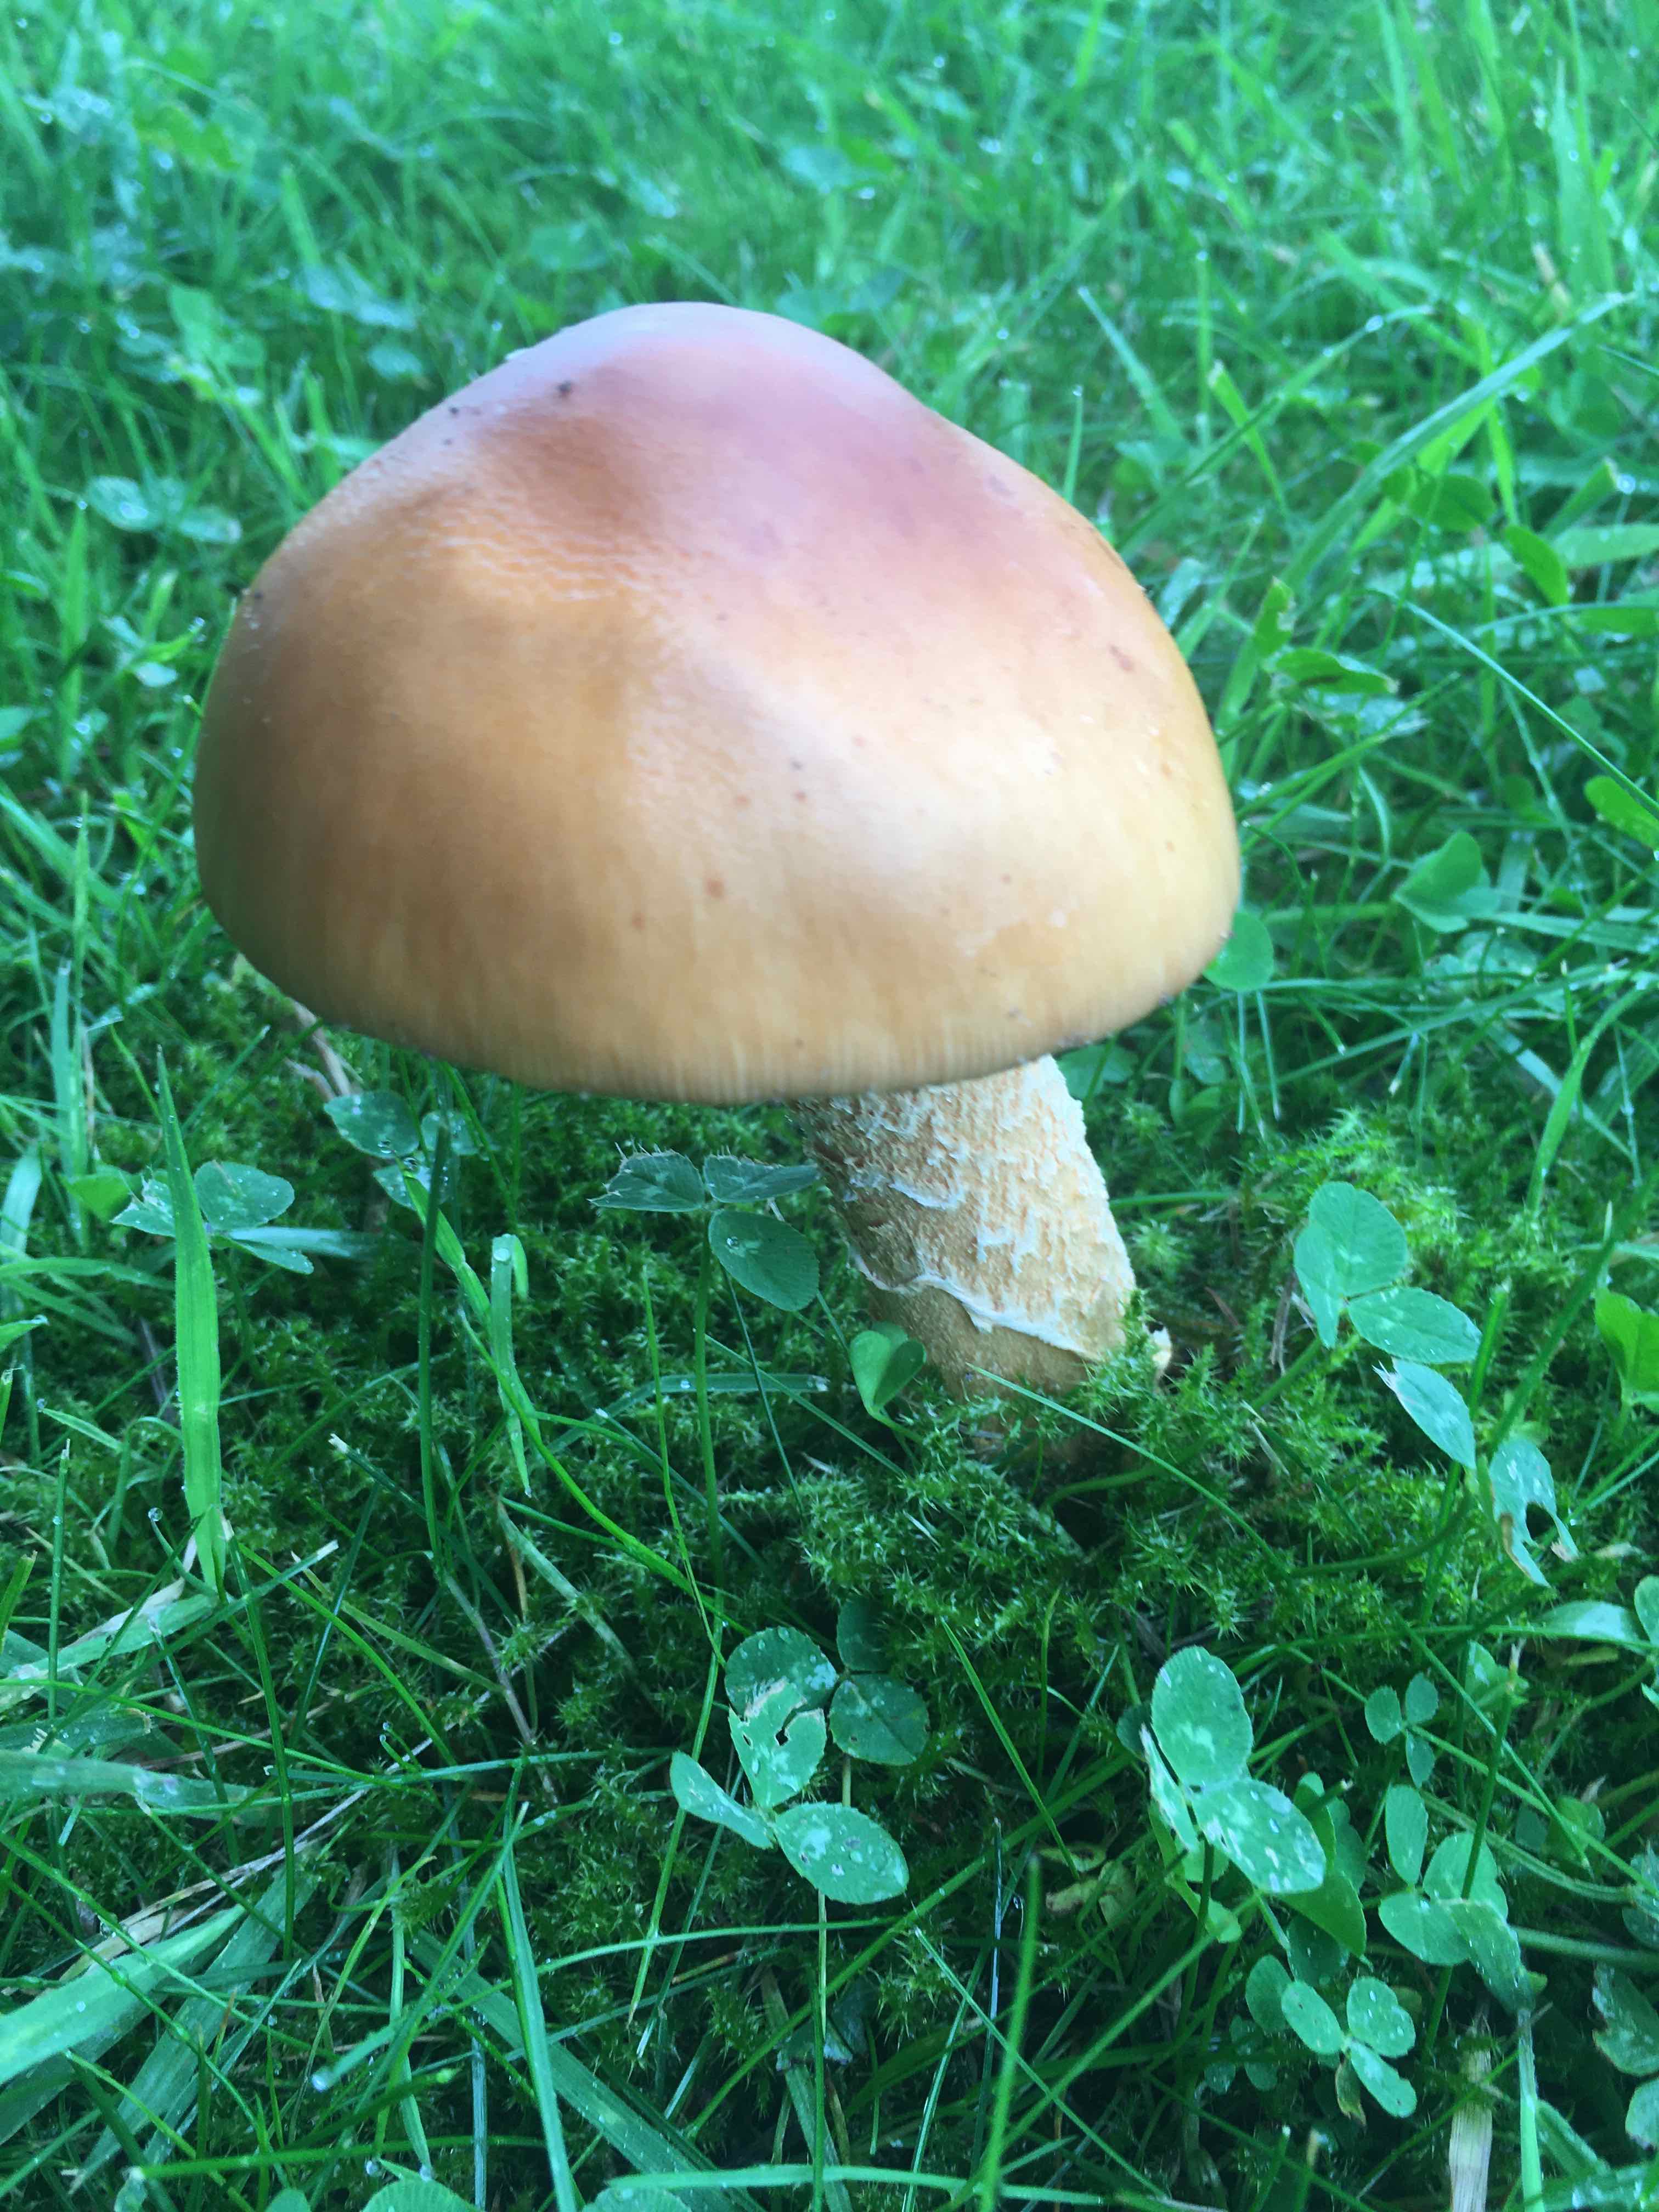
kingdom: Fungi
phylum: Basidiomycota
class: Agaricomycetes
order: Agaricales
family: Amanitaceae
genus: Amanita
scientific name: Amanita
